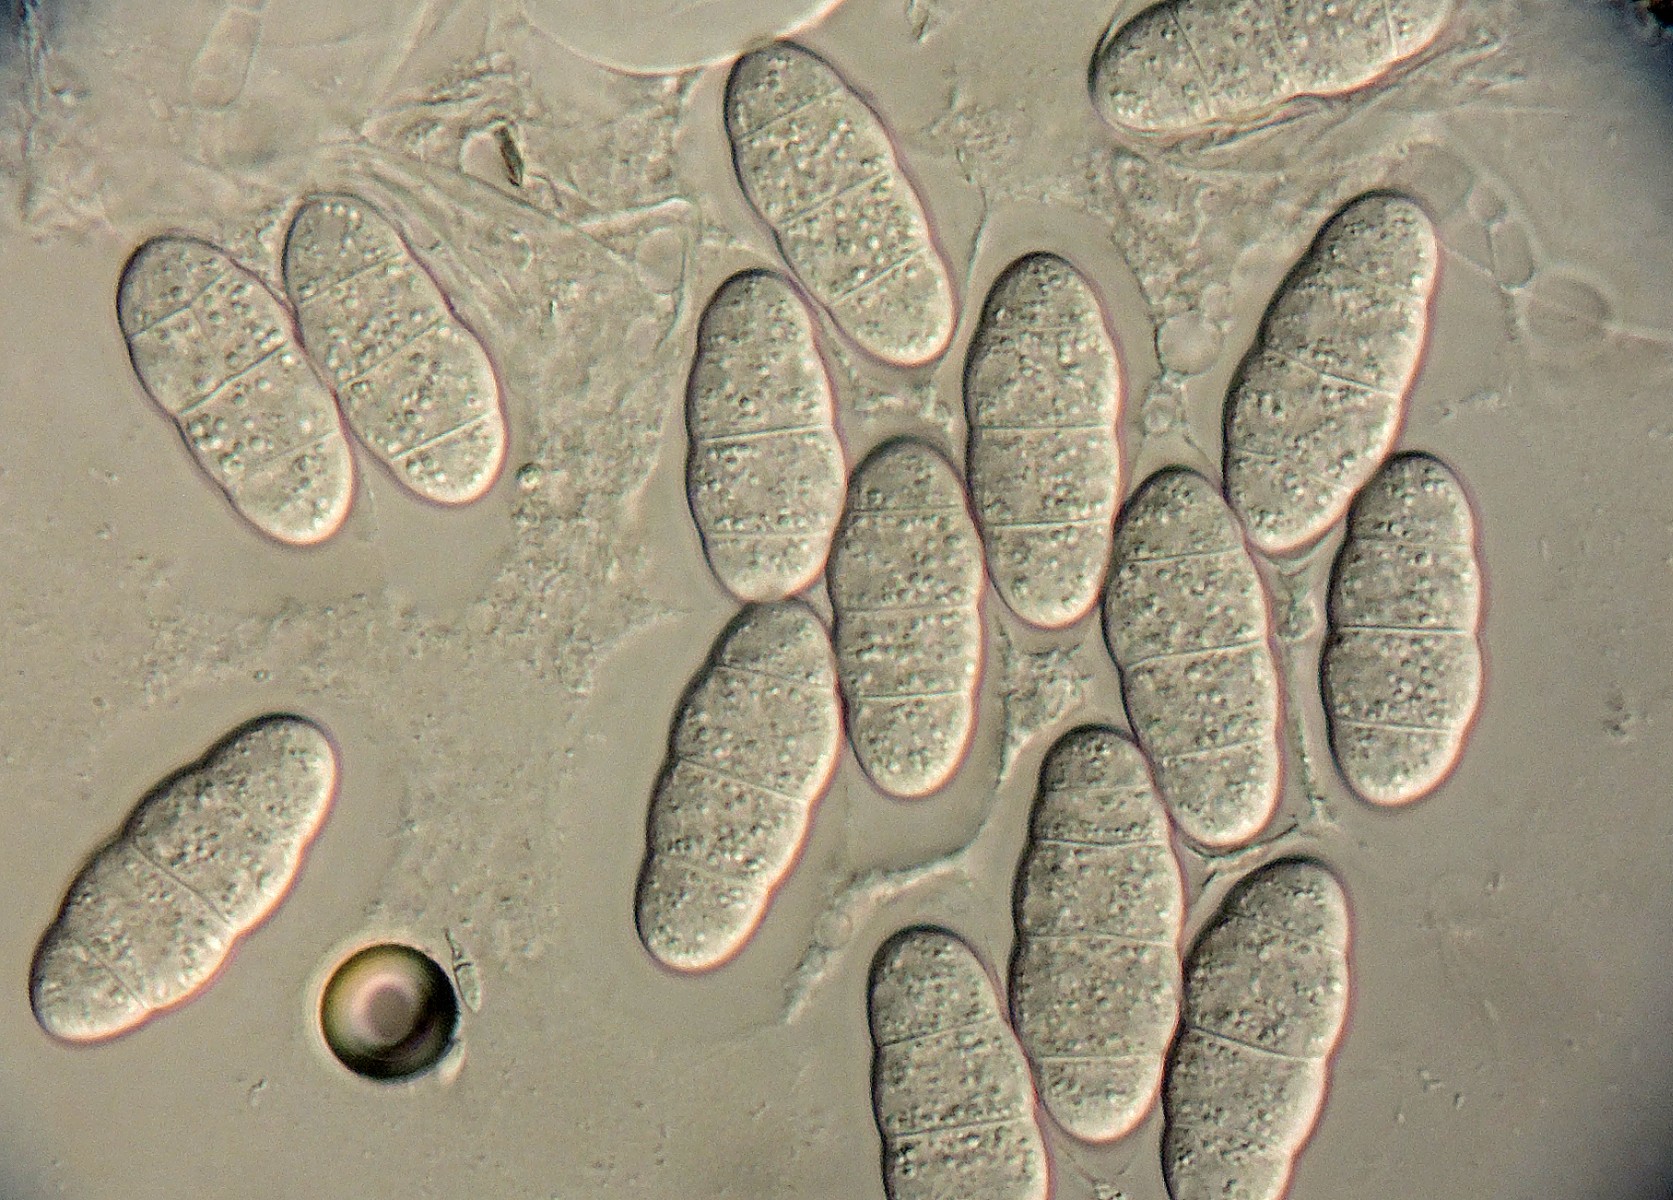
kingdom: Fungi
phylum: Ascomycota
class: Dothideomycetes
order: Pleosporales
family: Didymellaceae
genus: Leptosphaerulina
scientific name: Leptosphaerulina trifolii
